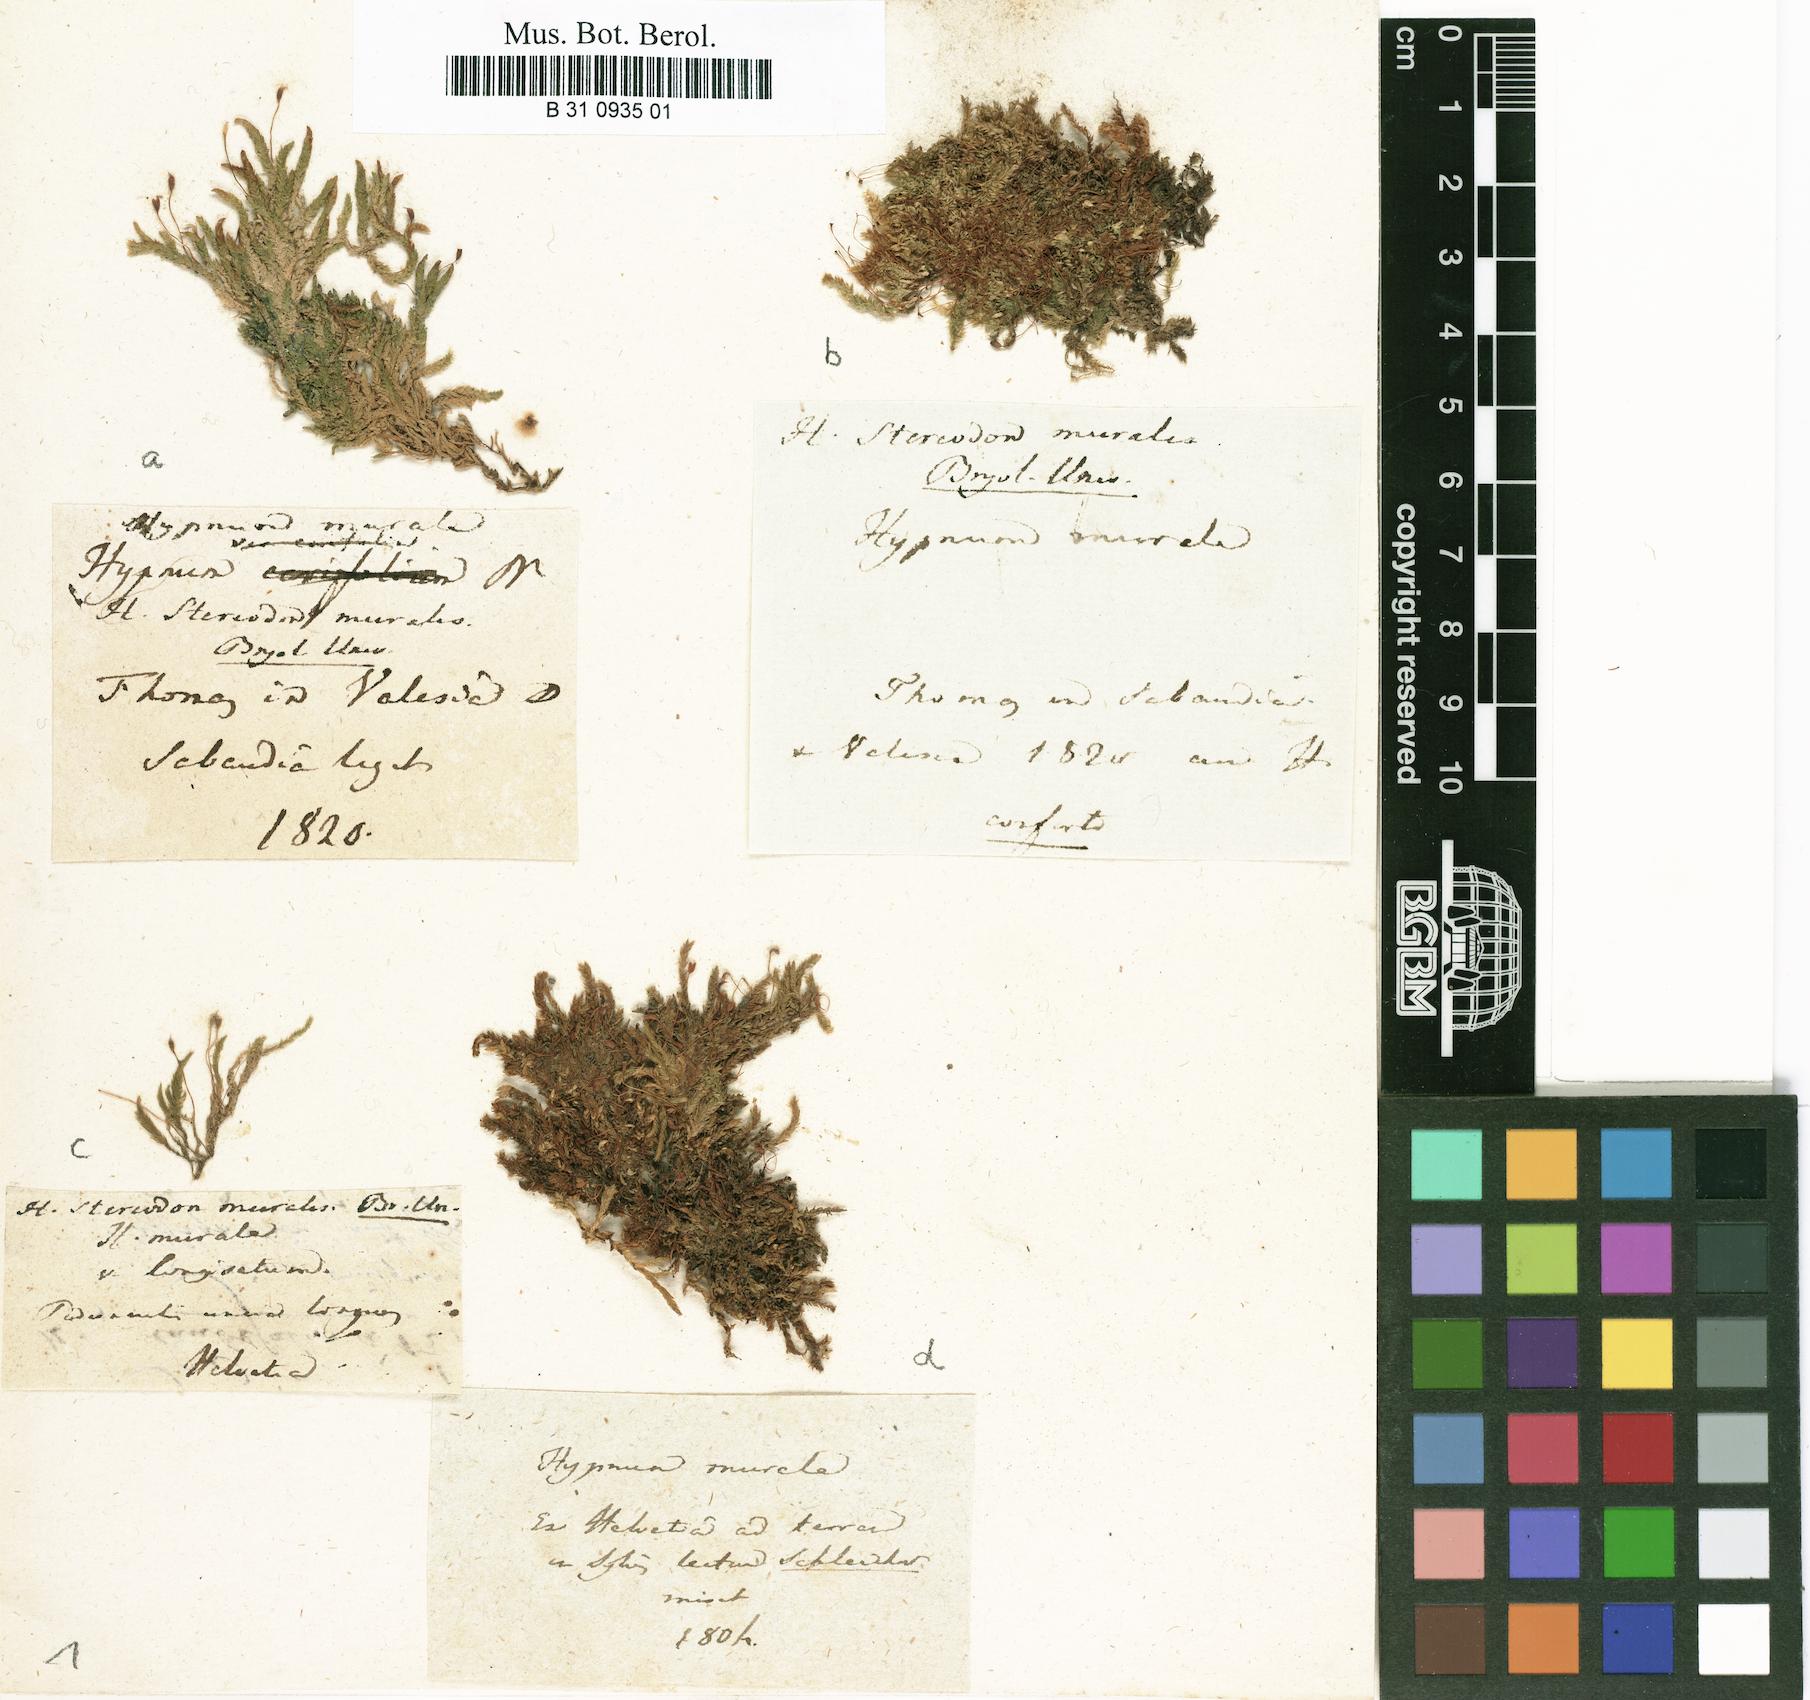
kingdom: Plantae
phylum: Bryophyta
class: Bryopsida
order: Hypnales
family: Brachytheciaceae
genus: Rhynchostegium
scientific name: Rhynchostegium murale
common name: Wall feather-moss
